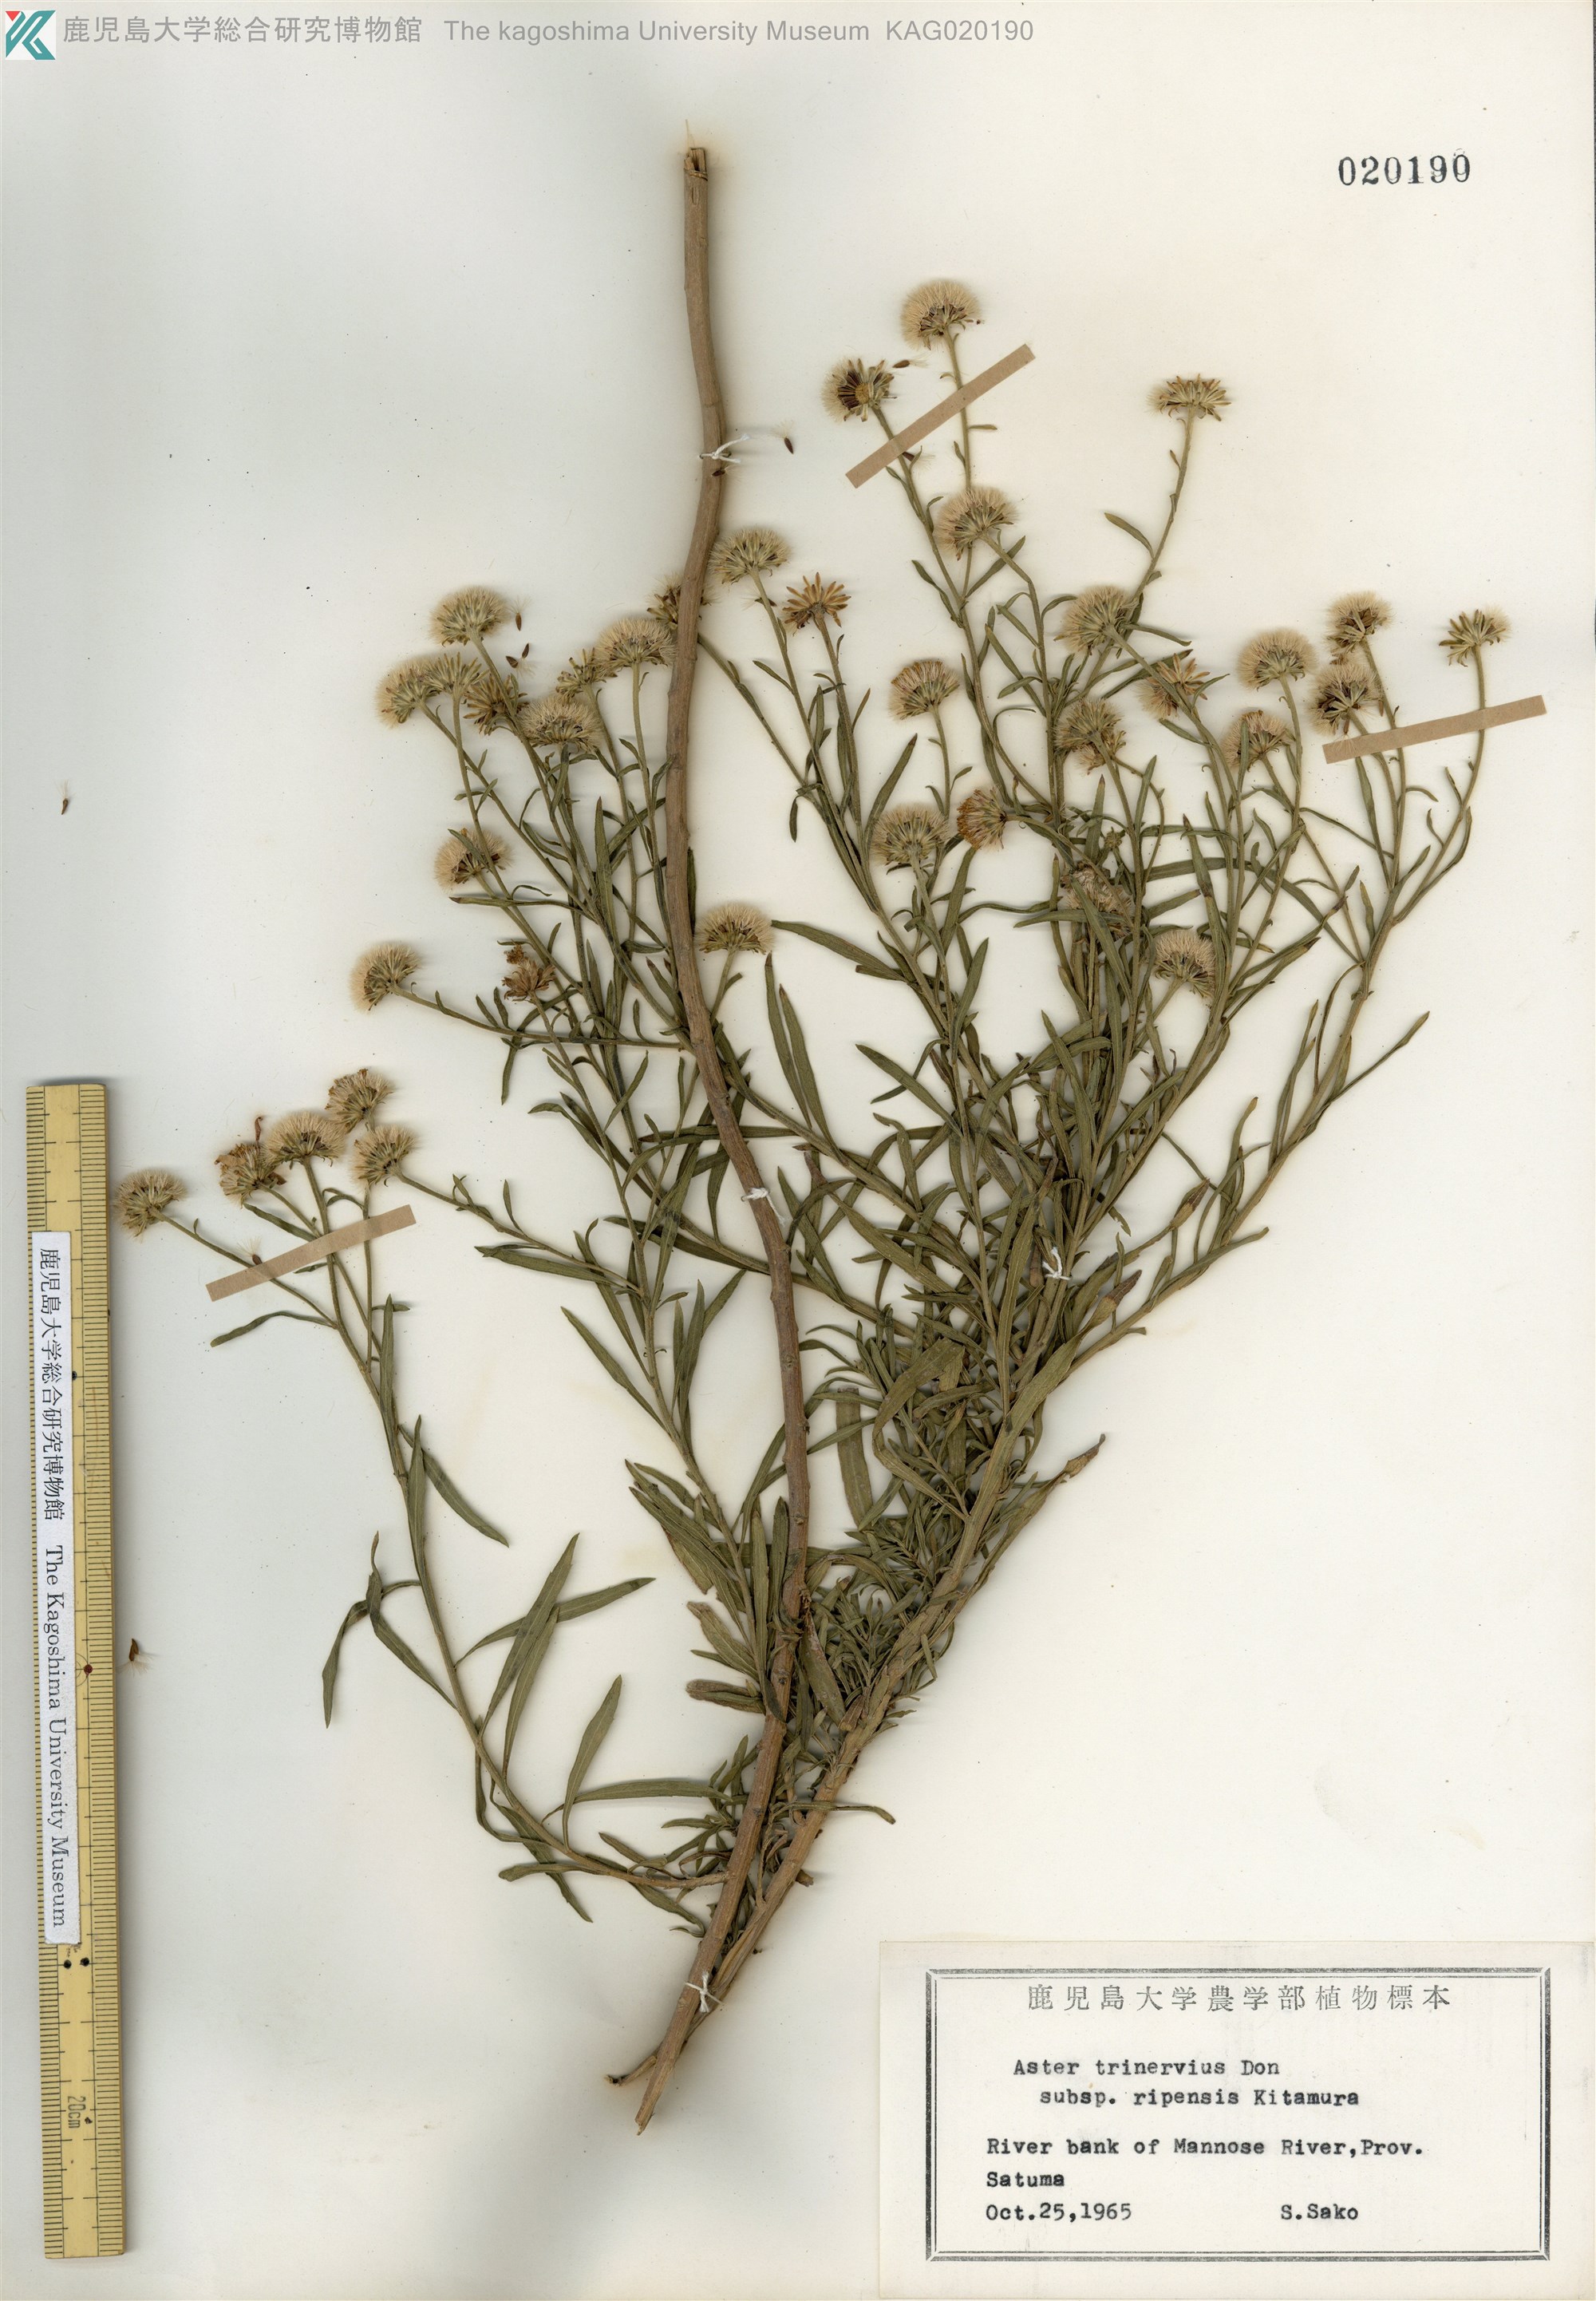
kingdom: Plantae
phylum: Tracheophyta
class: Magnoliopsida
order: Asterales
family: Asteraceae
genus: Aster
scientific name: Aster microcephalus
